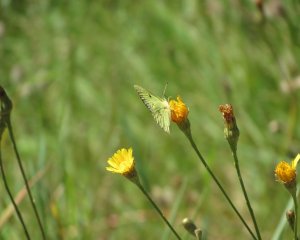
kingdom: Animalia
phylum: Arthropoda
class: Insecta
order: Lepidoptera
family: Pieridae
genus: Colias
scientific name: Colias philodice
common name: Clouded Sulphur
